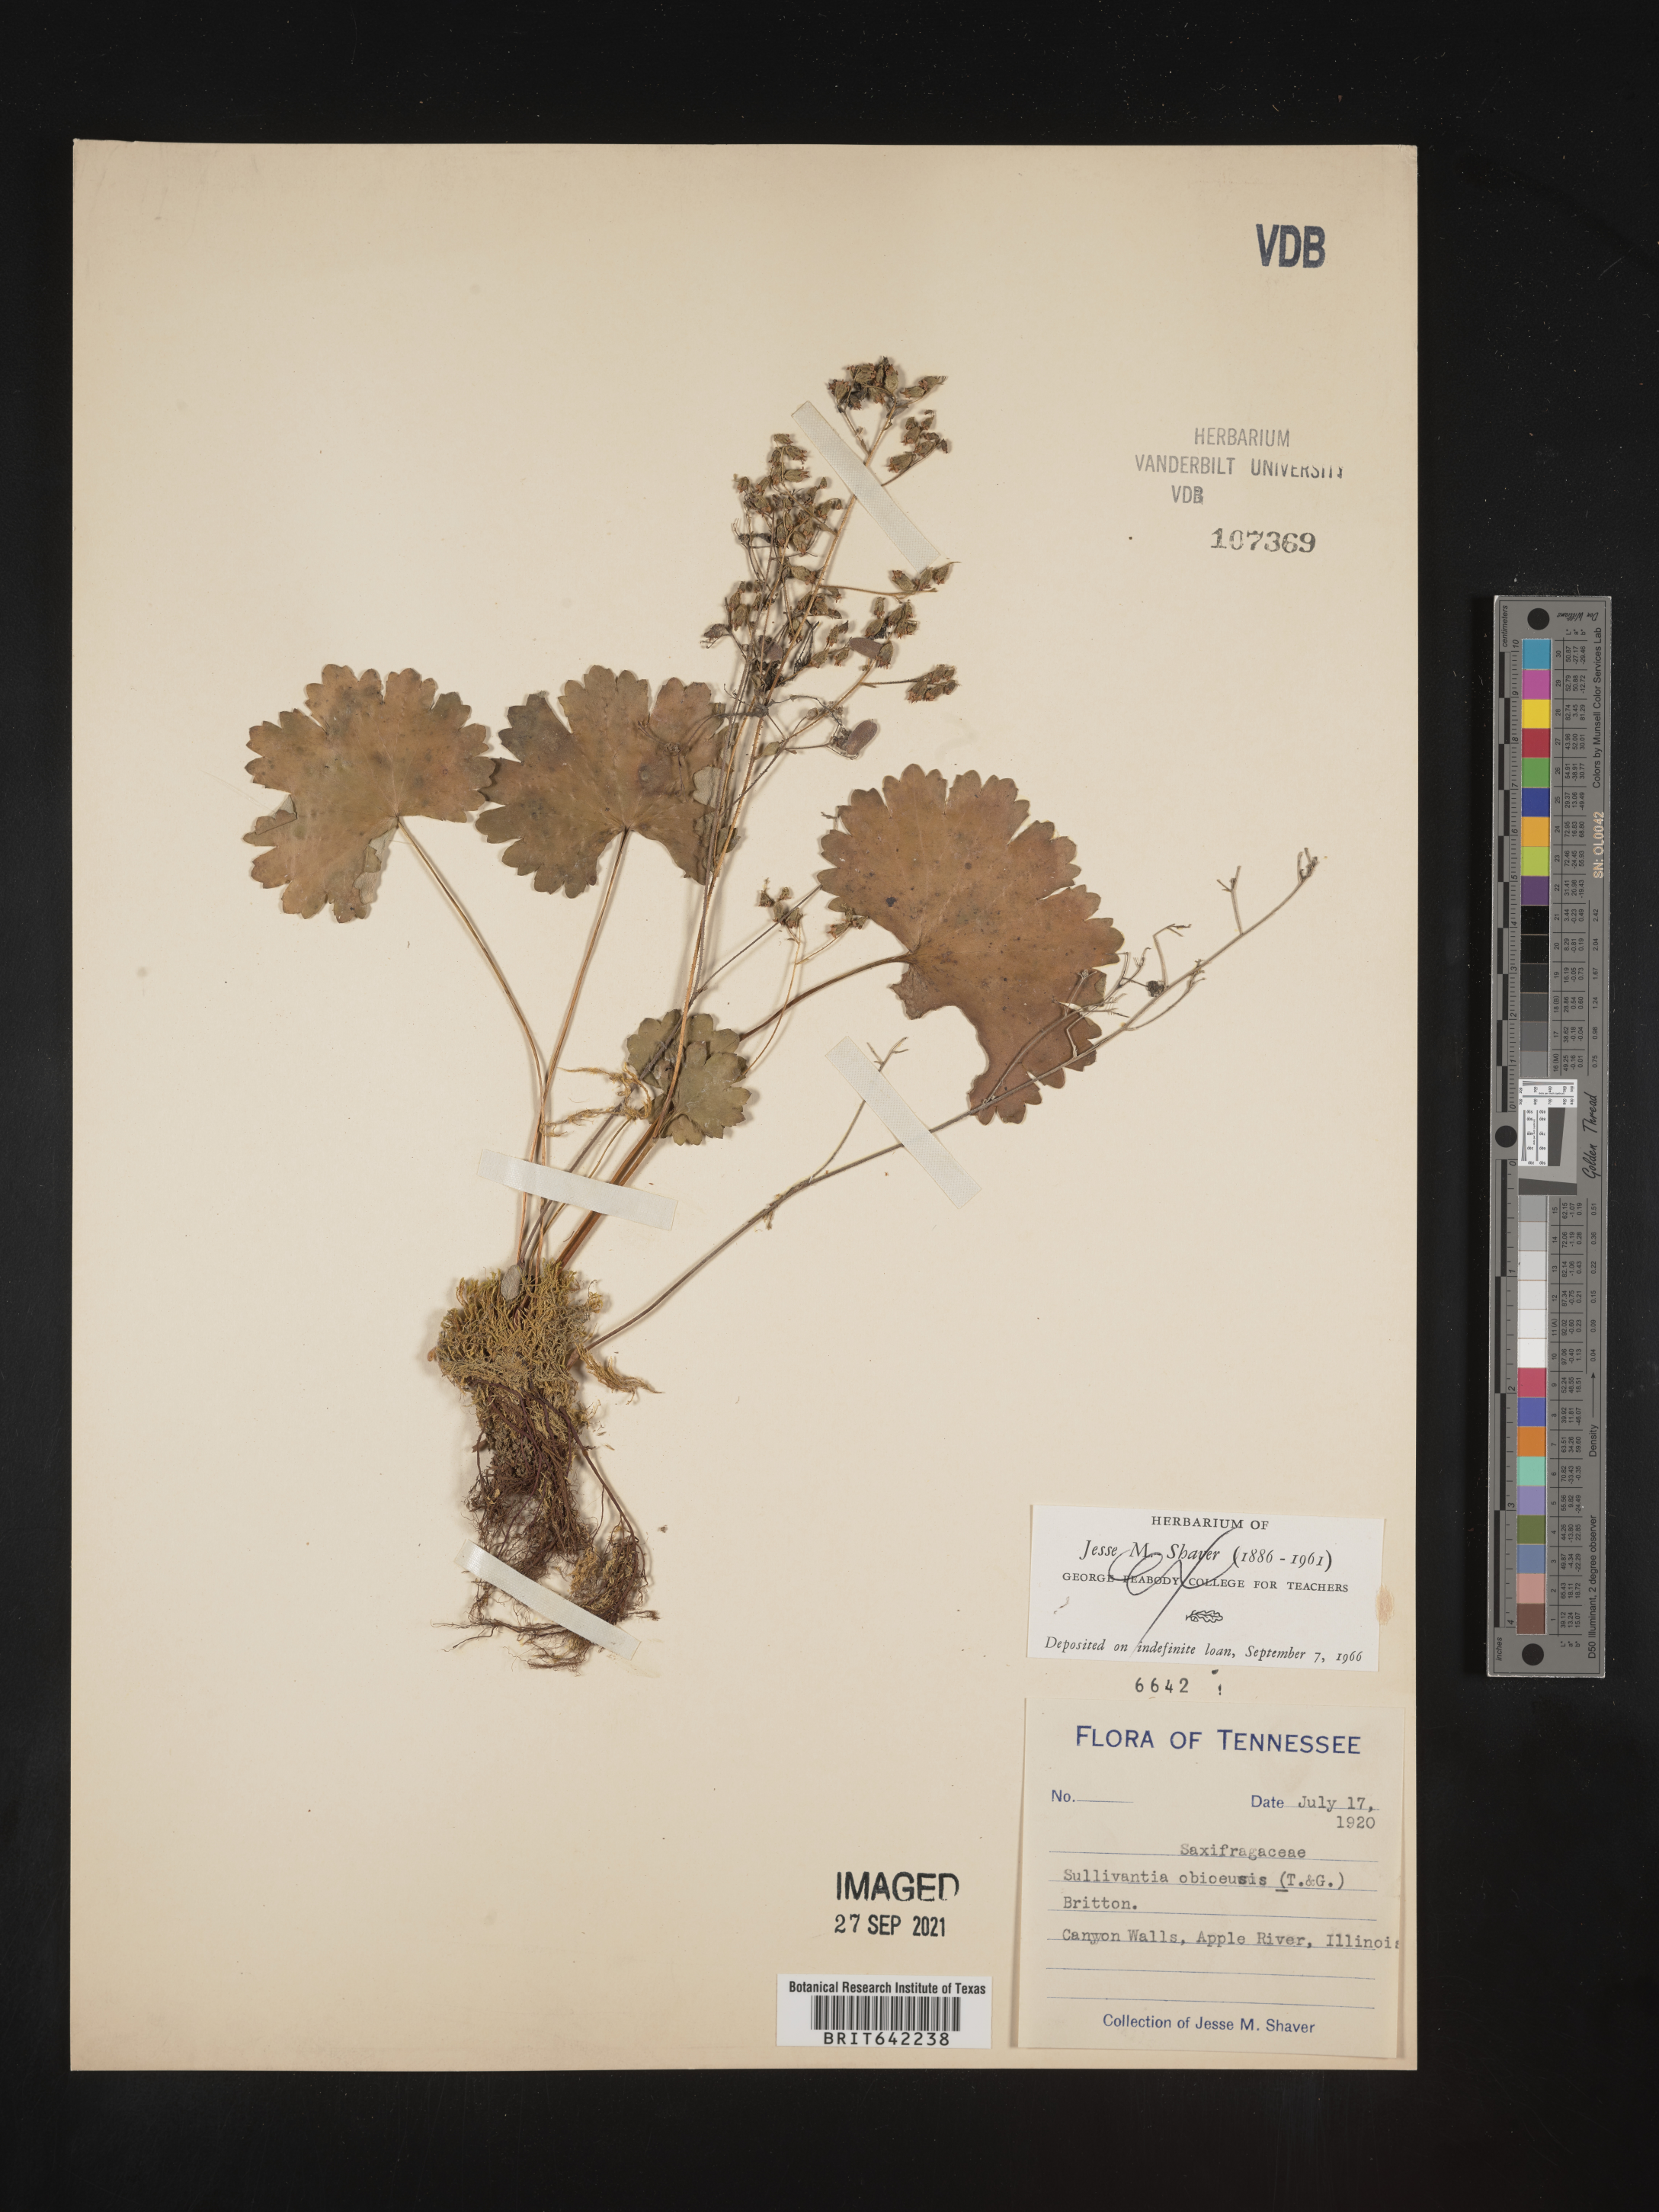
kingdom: Plantae
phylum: Tracheophyta
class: Magnoliopsida
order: Saxifragales
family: Saxifragaceae
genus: Sullivantia
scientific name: Sullivantia
